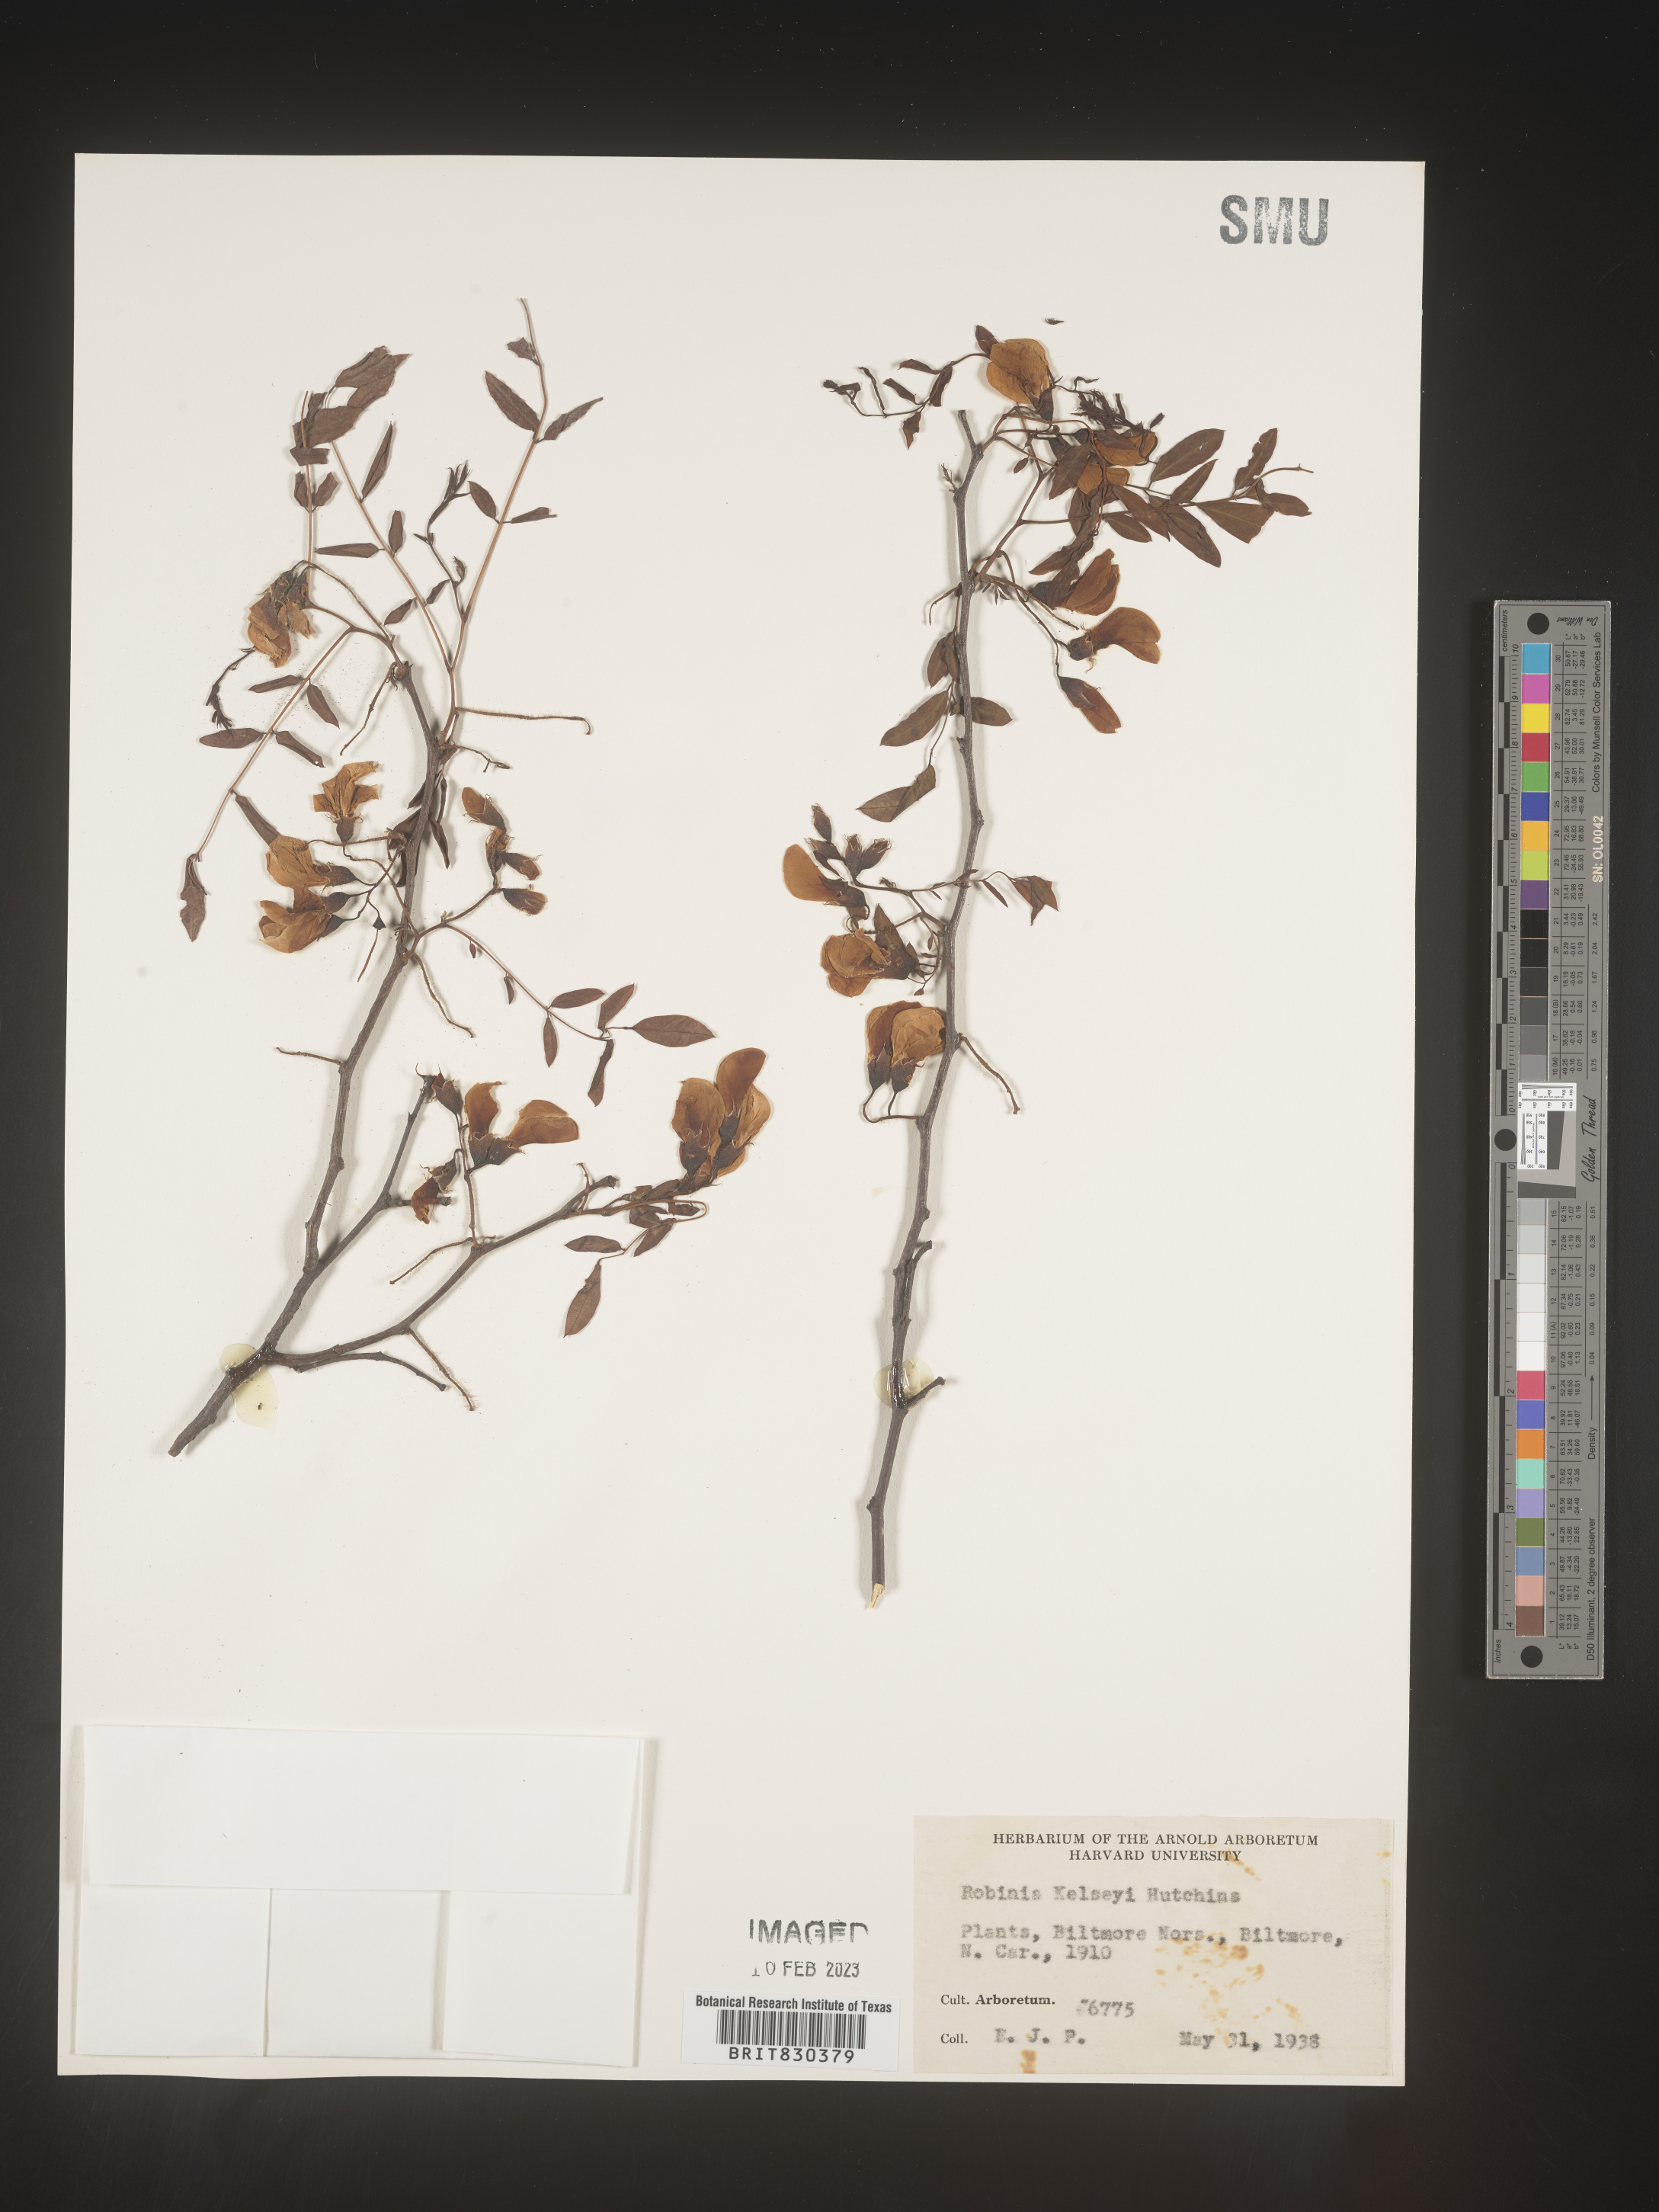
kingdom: Plantae
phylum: Tracheophyta
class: Magnoliopsida
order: Fabales
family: Fabaceae
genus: Robinia
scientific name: Robinia hispida
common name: Bristly locust
